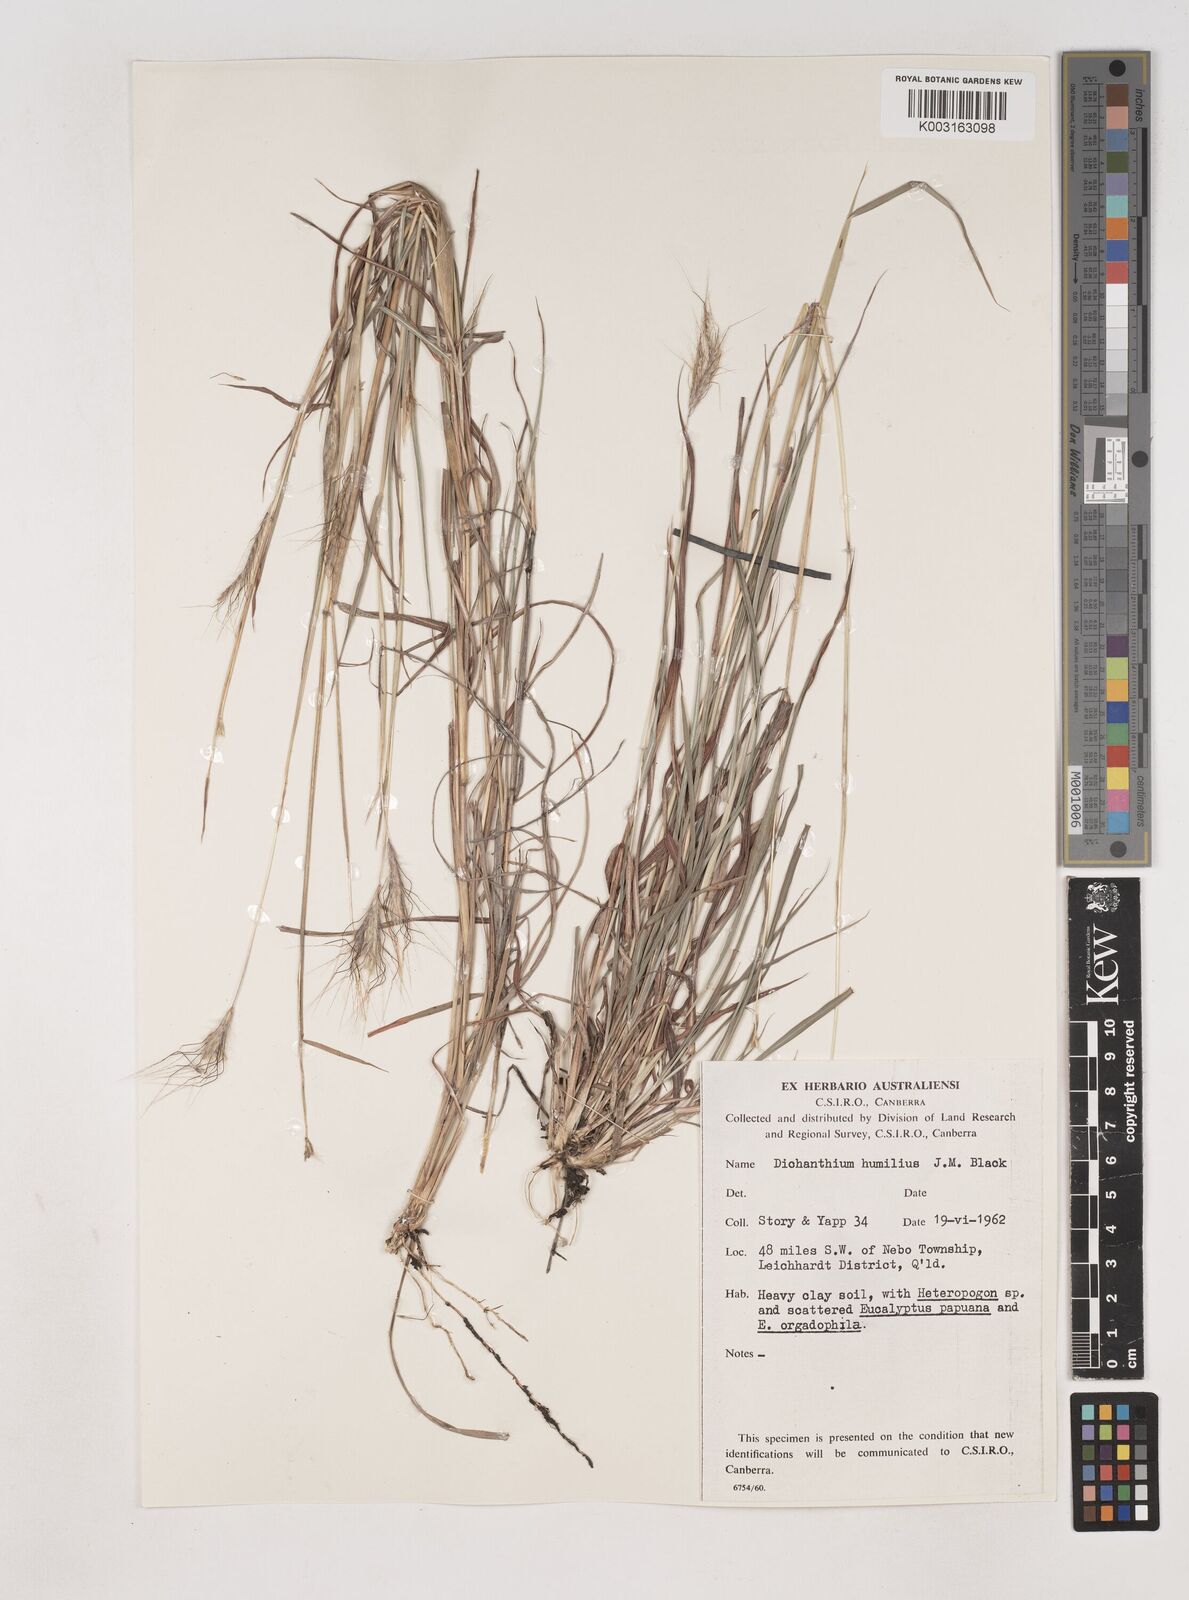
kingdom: Plantae
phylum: Tracheophyta
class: Liliopsida
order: Poales
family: Poaceae
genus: Dichanthium
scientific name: Dichanthium sericeum
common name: Silky bluestem
